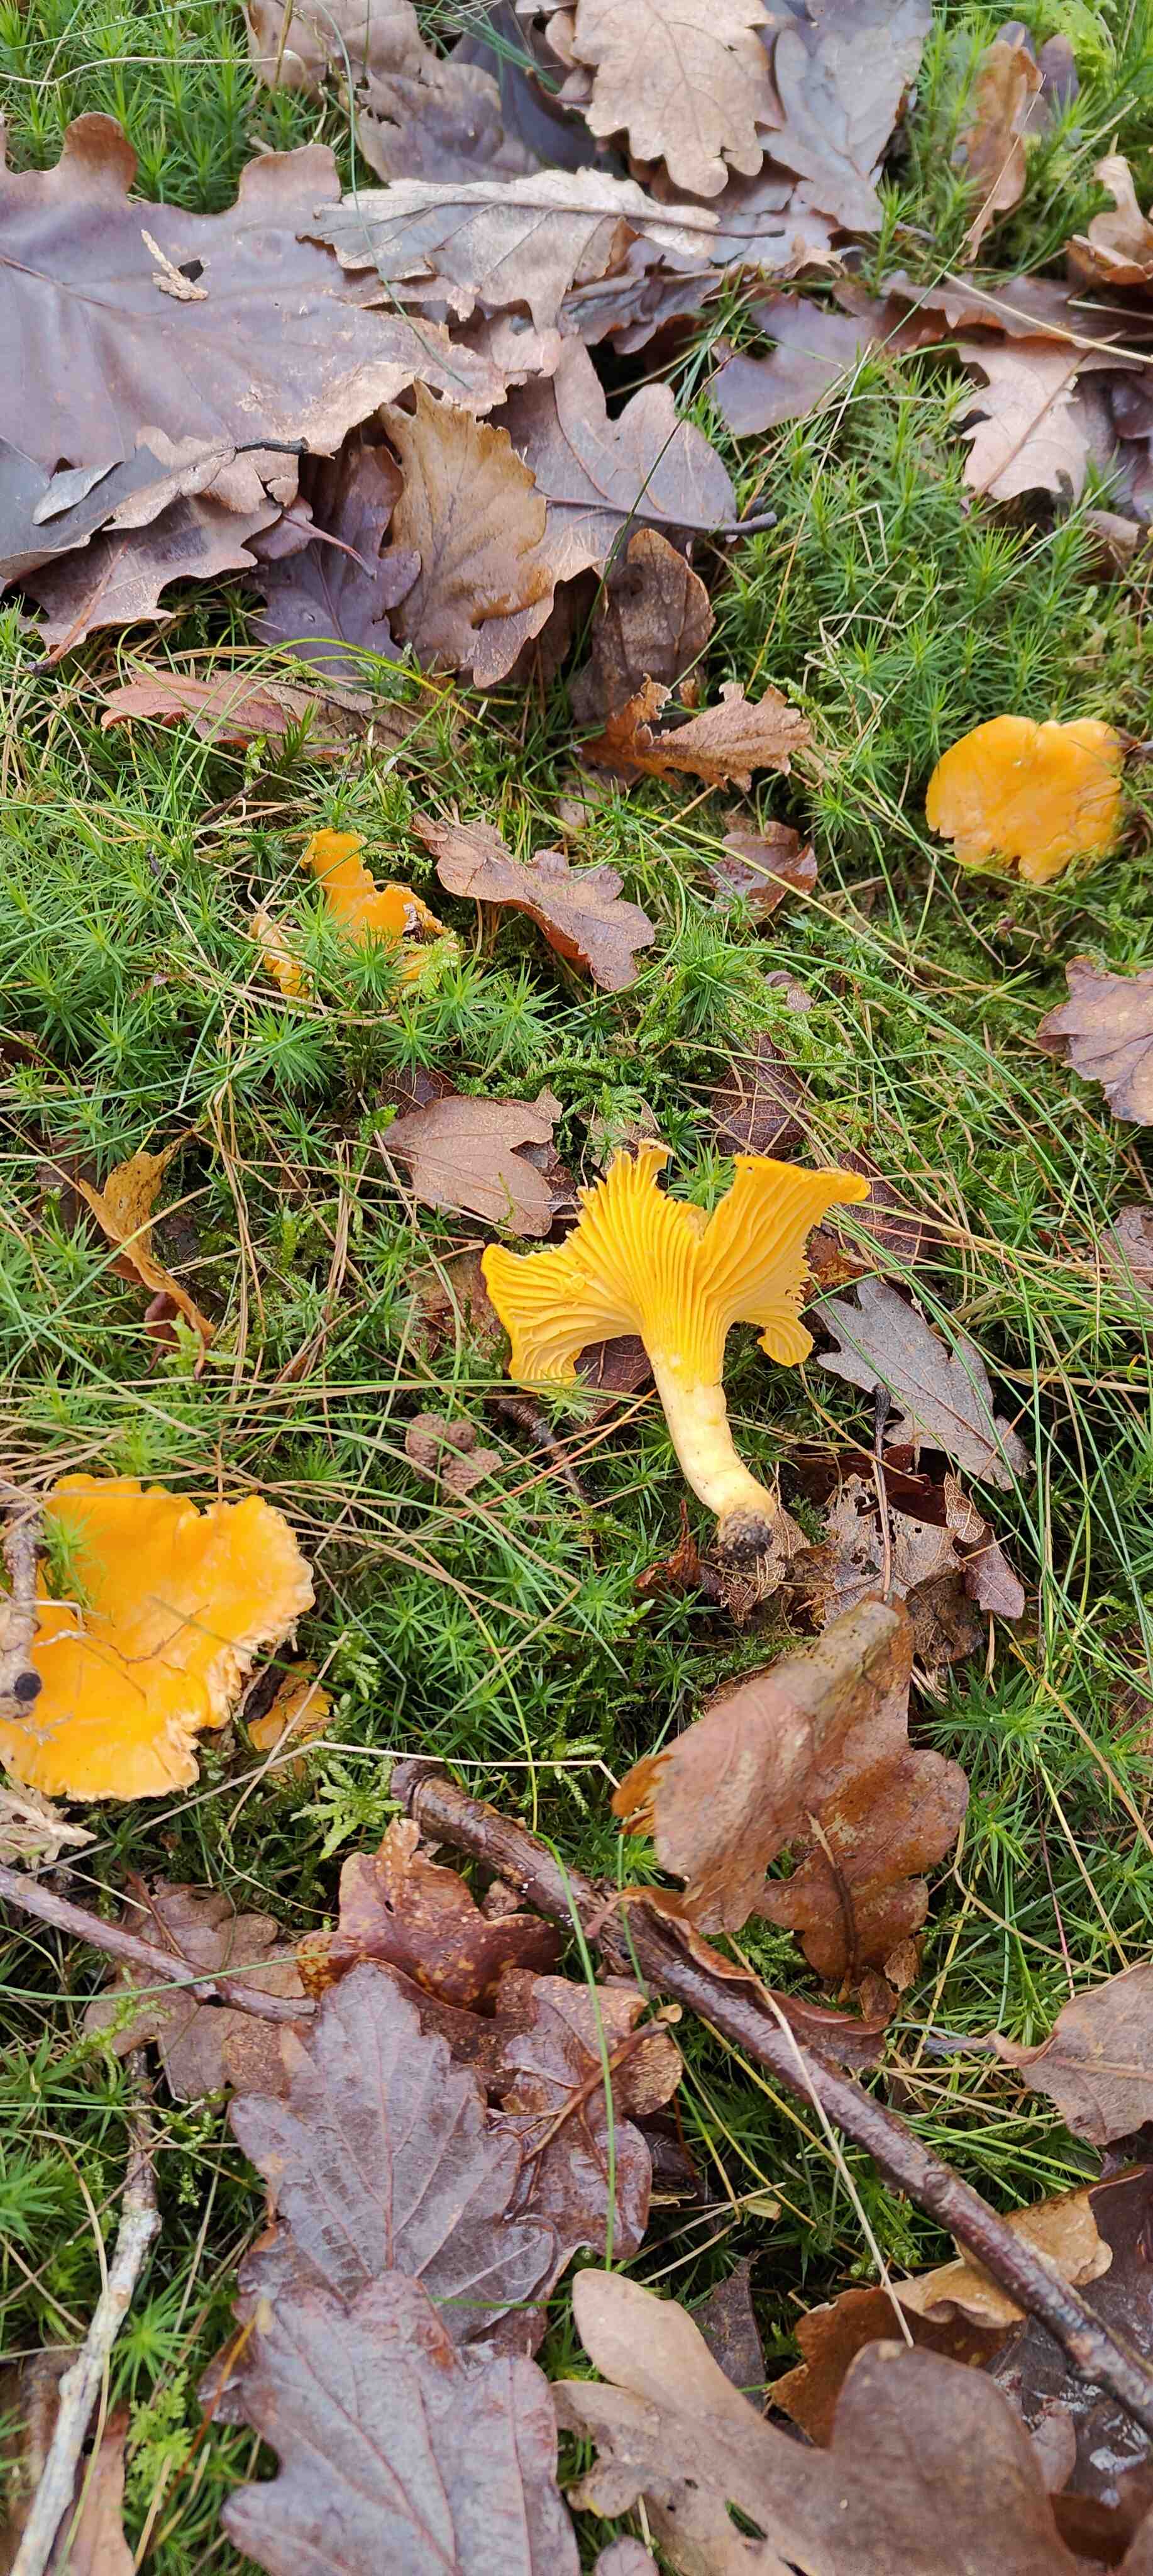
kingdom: Fungi
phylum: Basidiomycota
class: Agaricomycetes
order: Cantharellales
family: Hydnaceae
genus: Cantharellus
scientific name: Cantharellus cibarius
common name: almindelig kantarel
